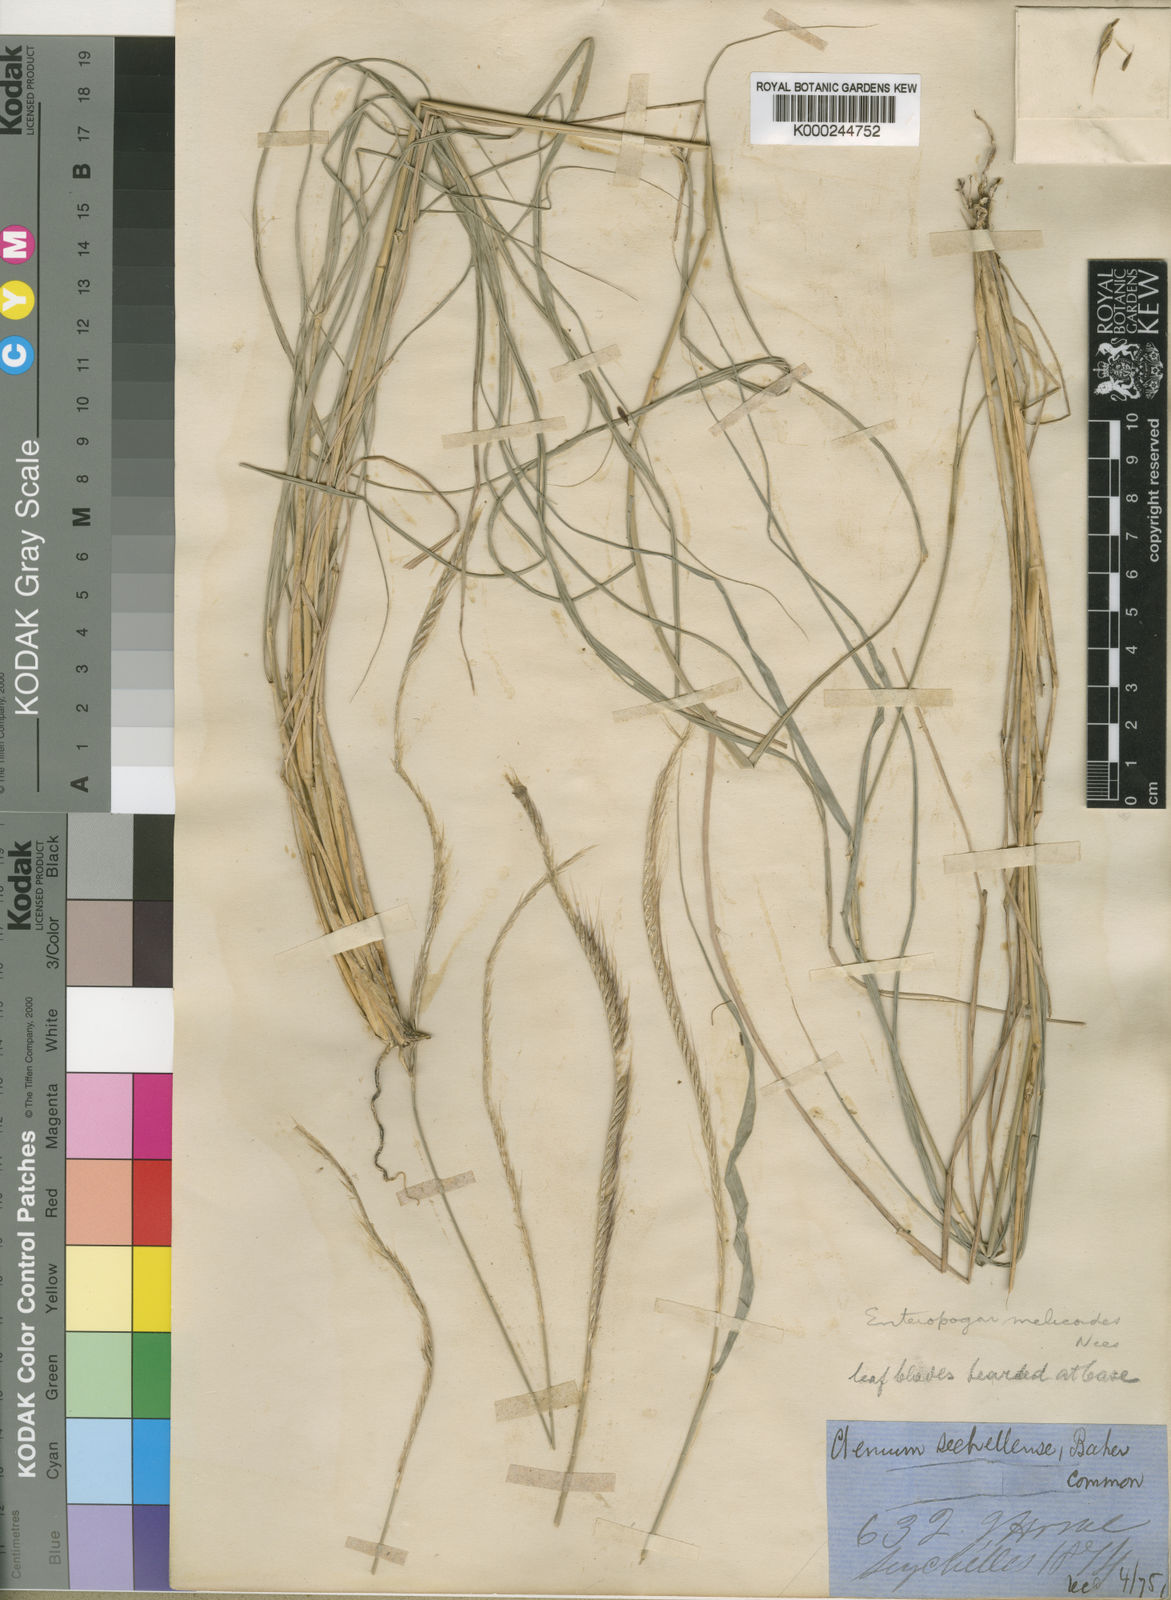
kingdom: Plantae
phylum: Tracheophyta
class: Liliopsida
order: Poales
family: Poaceae
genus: Enteropogon
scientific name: Enteropogon
